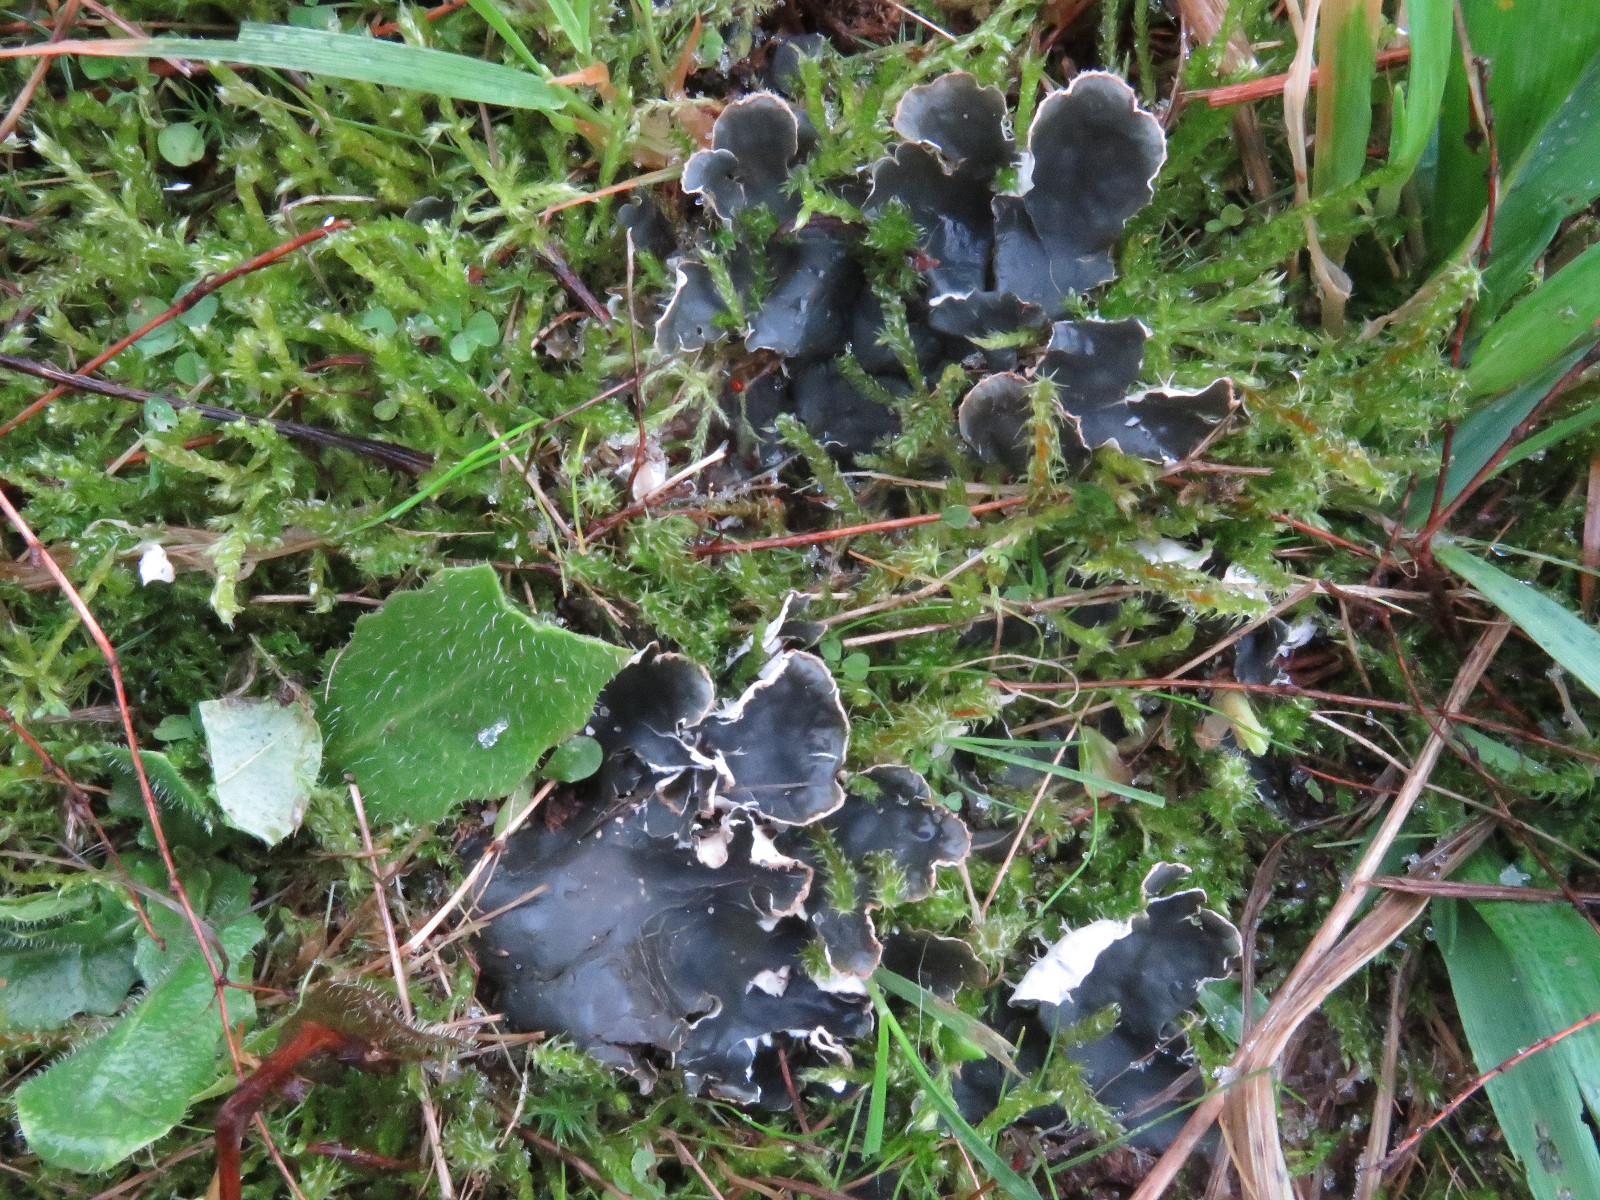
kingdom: Fungi
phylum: Ascomycota
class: Lecanoromycetes
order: Peltigerales
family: Peltigeraceae
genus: Peltigera
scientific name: Peltigera hymenina
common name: hinde-skjoldlav
